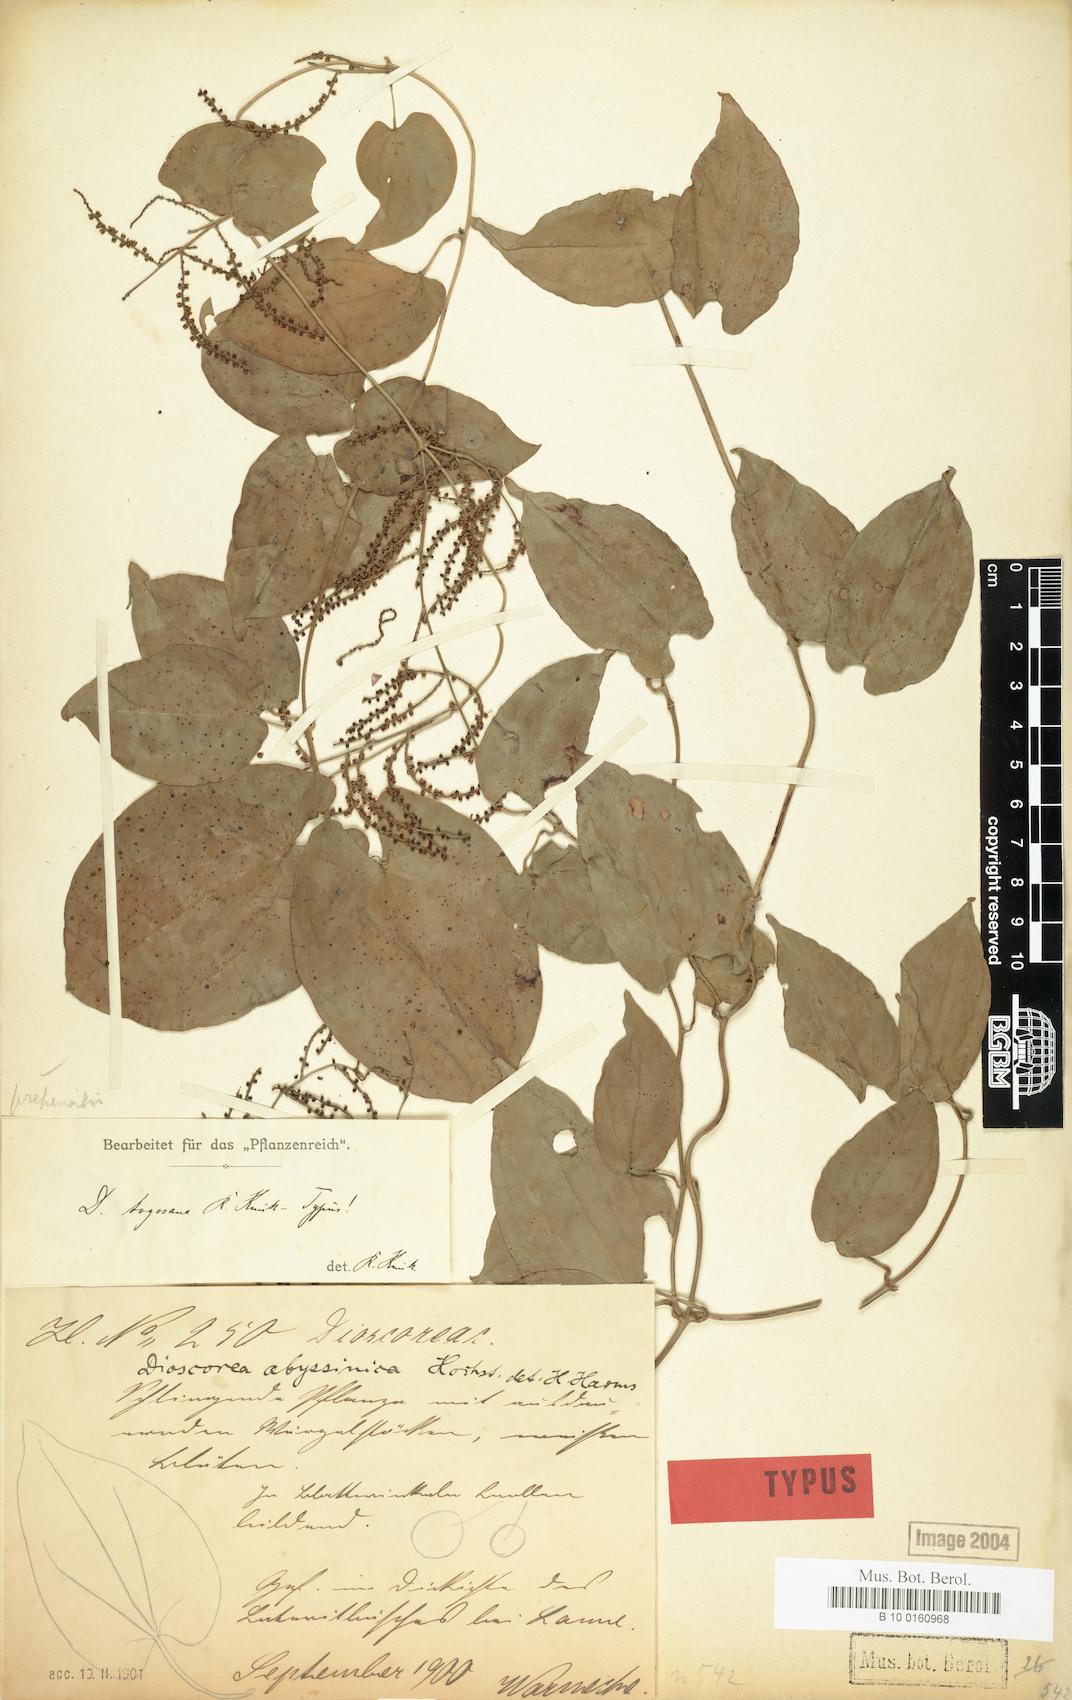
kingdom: Plantae
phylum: Tracheophyta
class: Liliopsida
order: Dioscoreales
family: Dioscoreaceae
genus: Dioscorea
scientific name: Dioscorea togoensis
